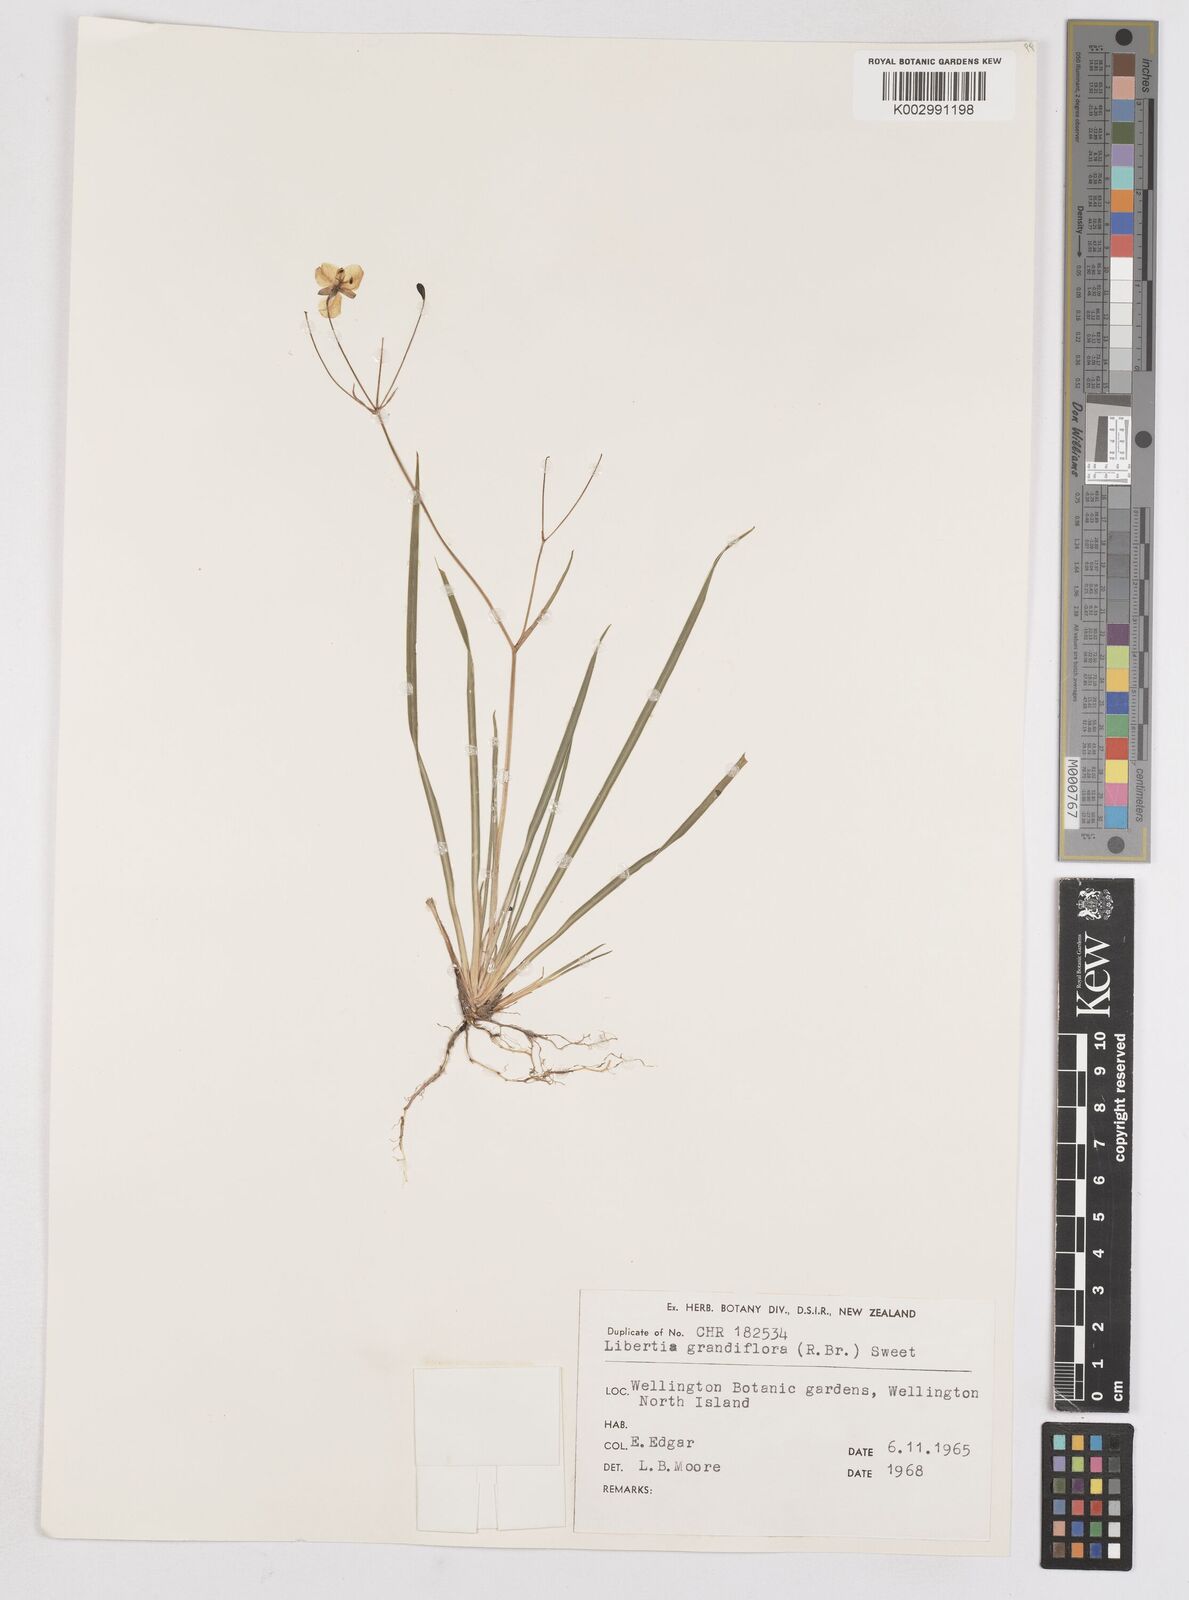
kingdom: Plantae
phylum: Tracheophyta
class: Liliopsida
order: Asparagales
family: Iridaceae
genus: Libertia
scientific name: Libertia grandiflora
